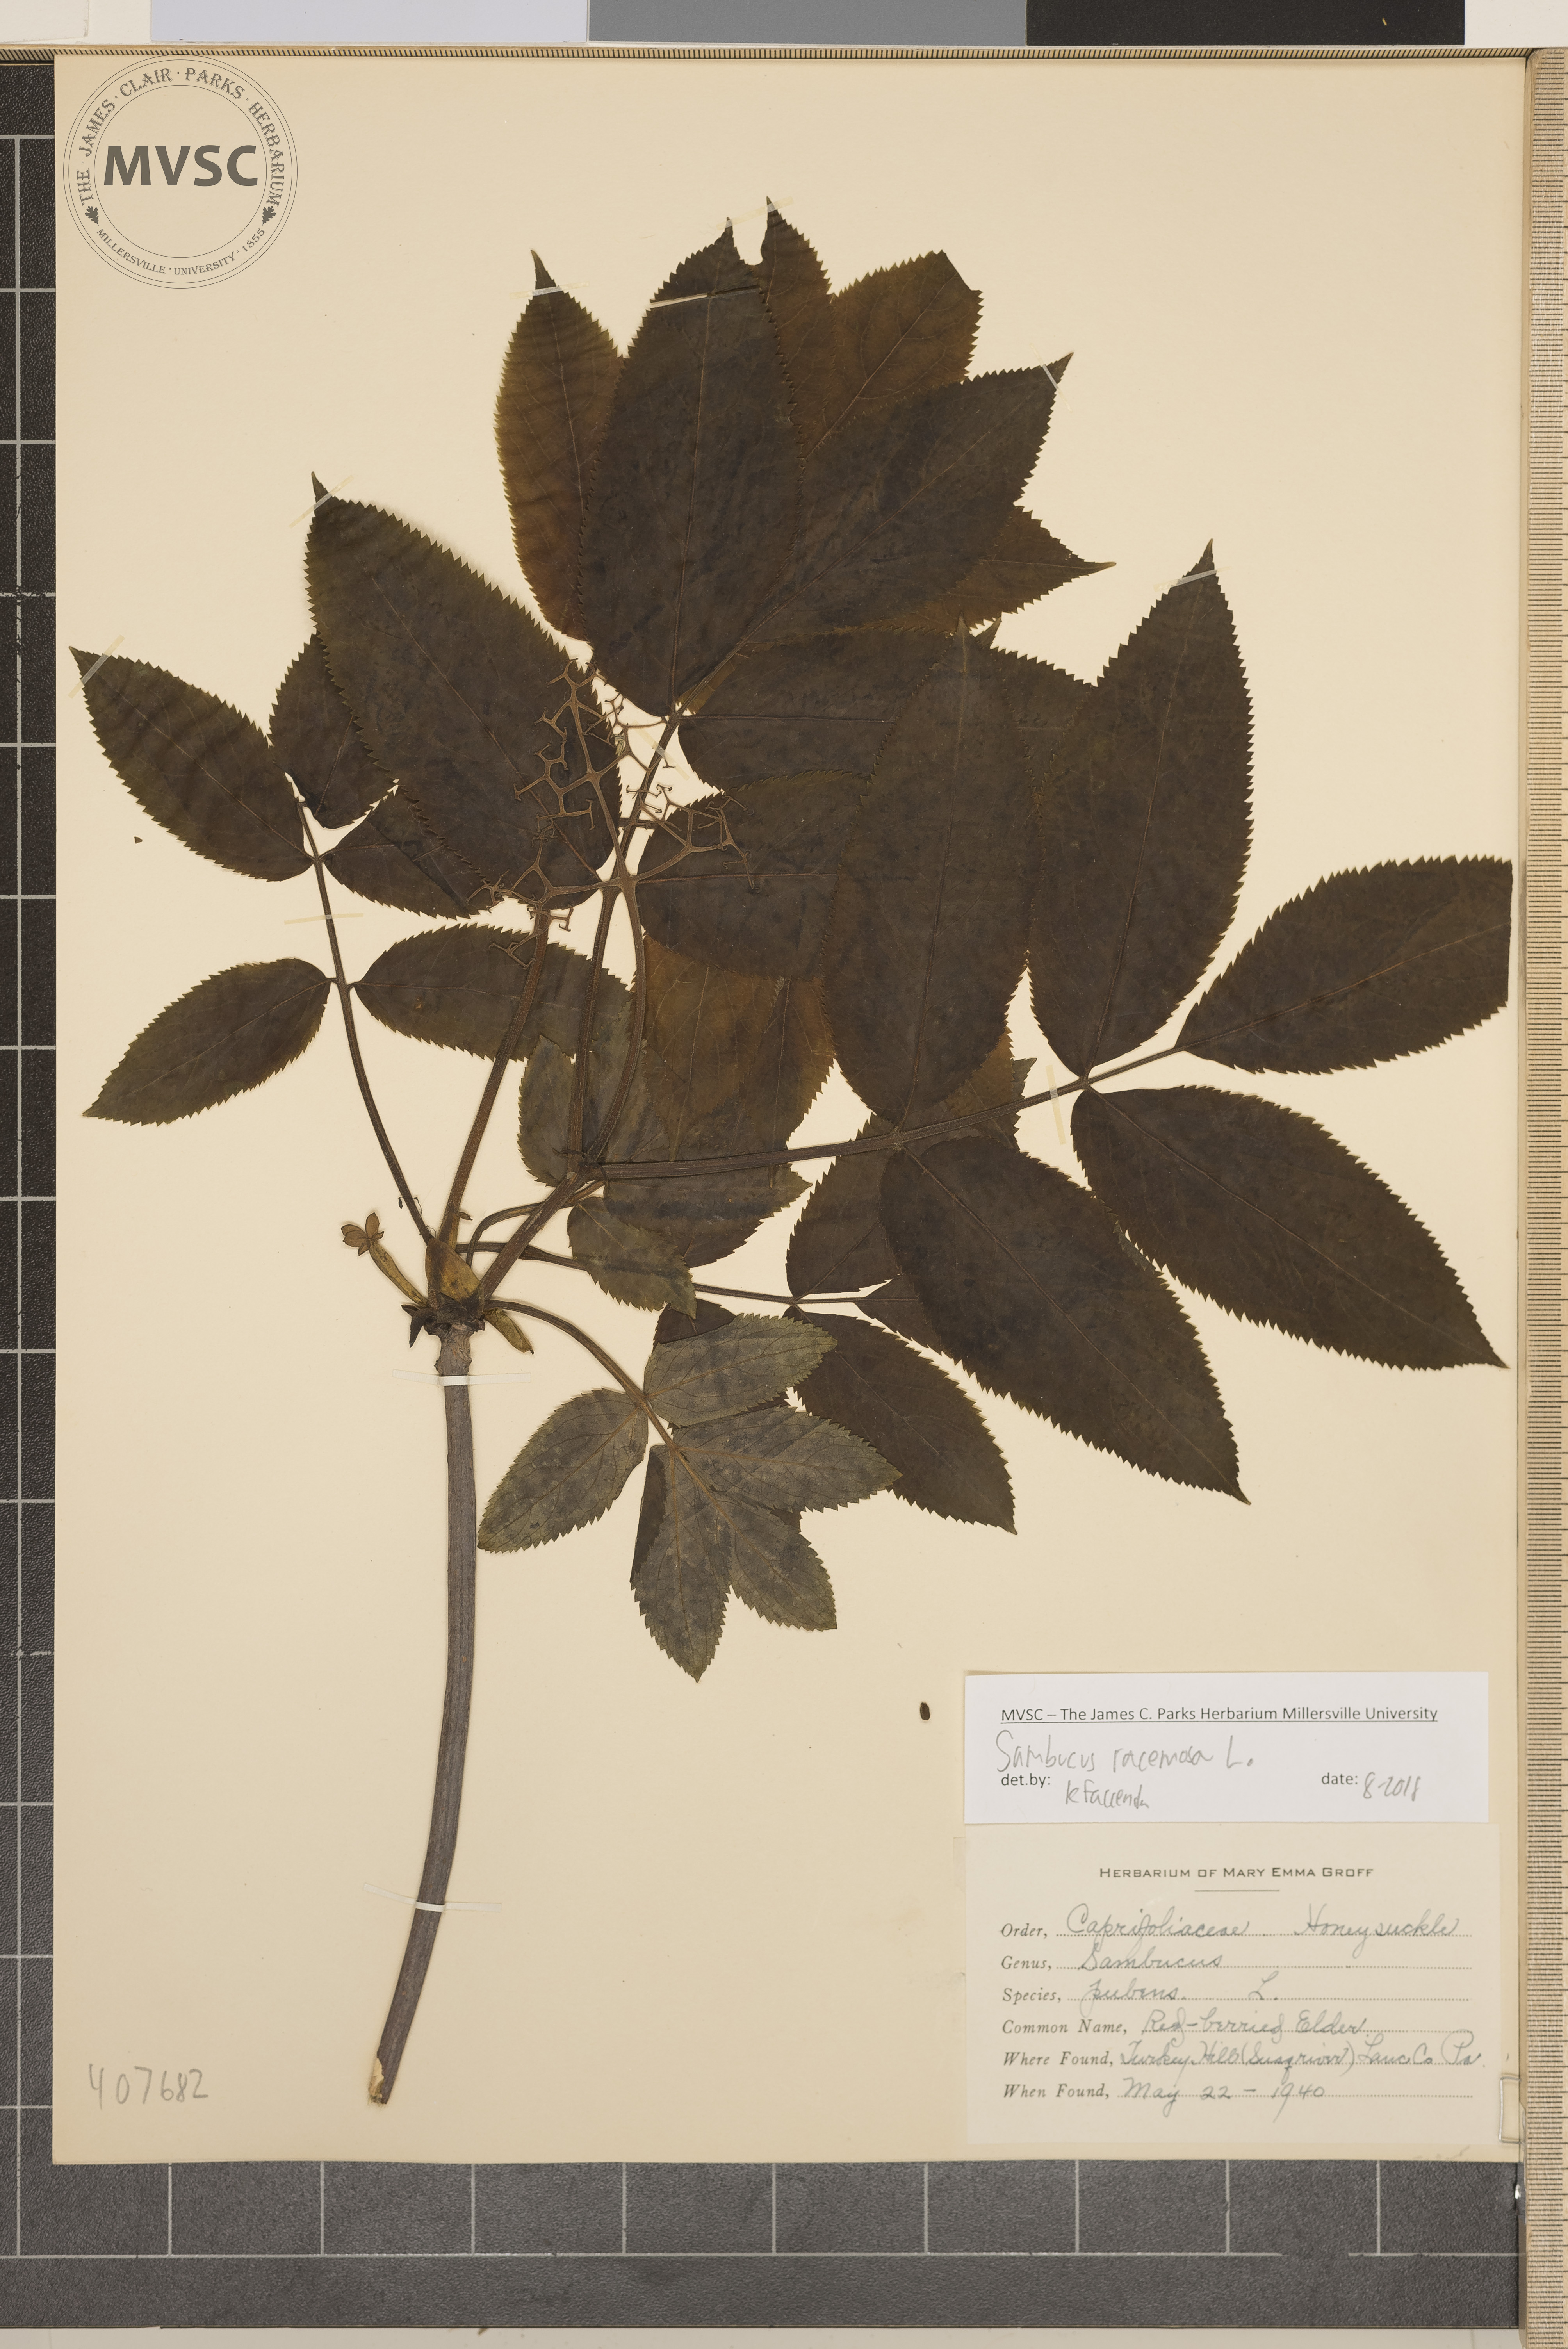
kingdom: Plantae
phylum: Tracheophyta
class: Magnoliopsida
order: Dipsacales
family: Viburnaceae
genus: Sambucus
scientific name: Sambucus racemosa
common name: Red-berried Elder
